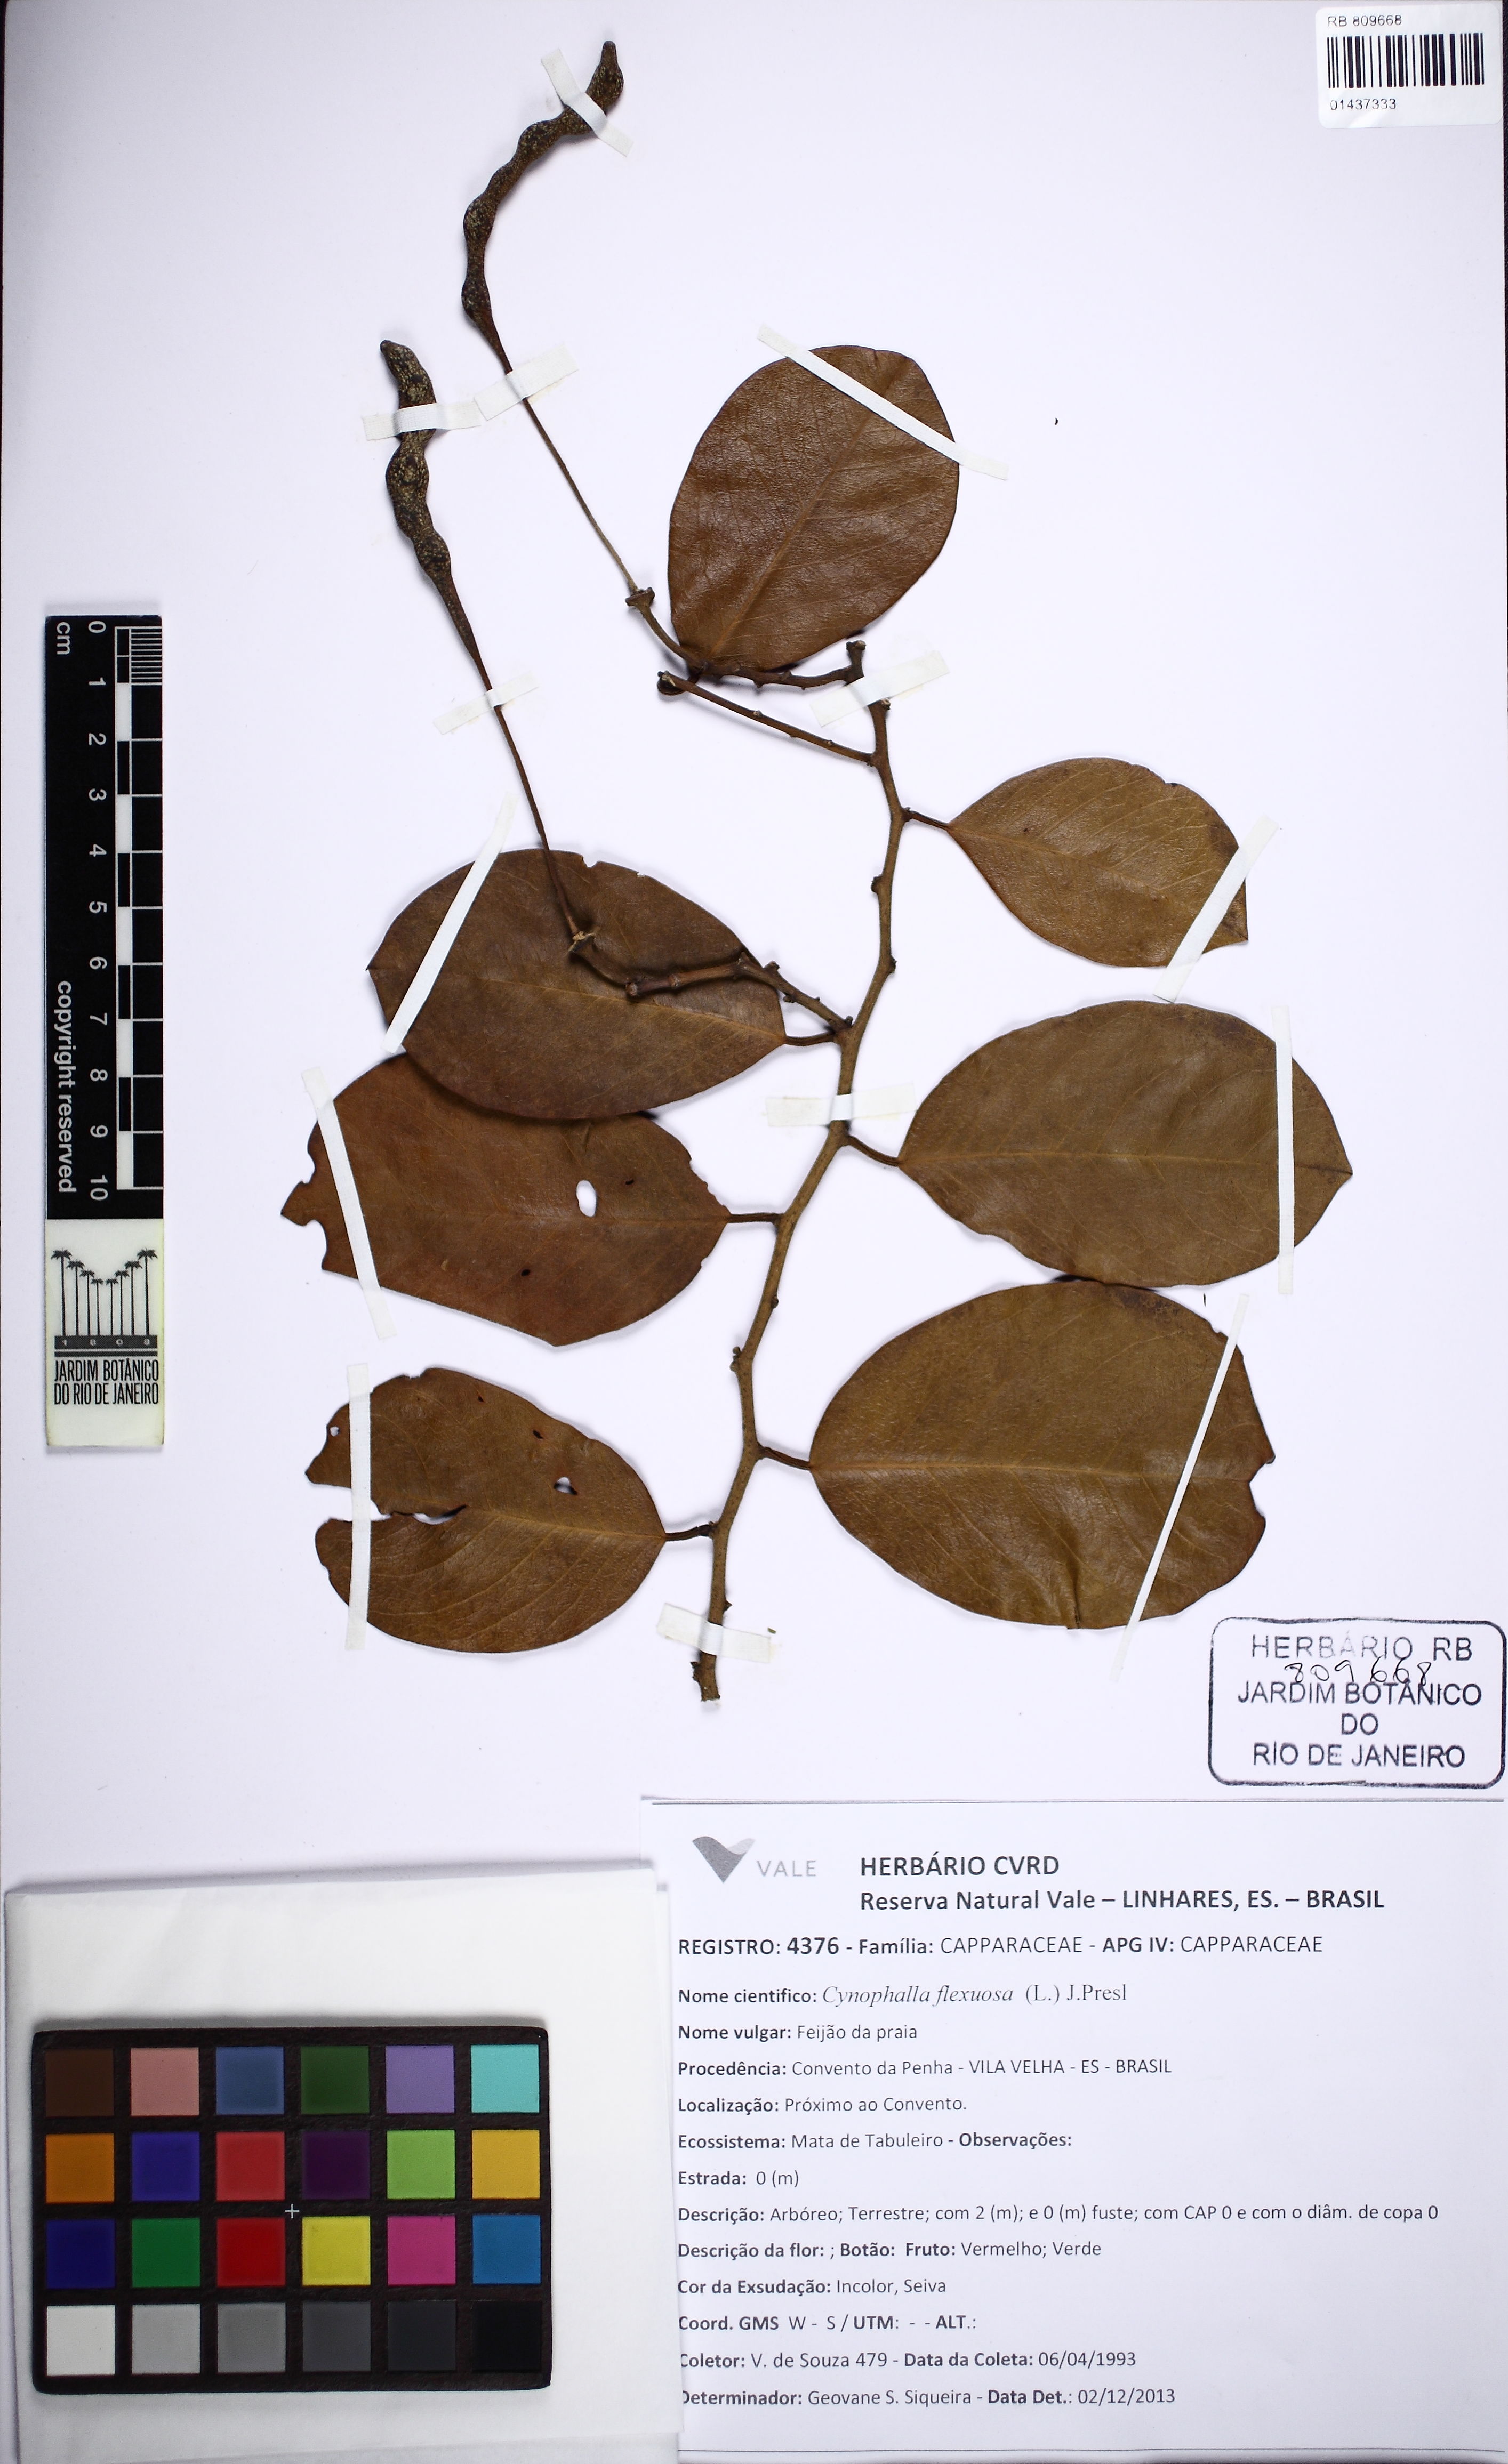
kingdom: Plantae
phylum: Tracheophyta
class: Magnoliopsida
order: Brassicales
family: Capparaceae
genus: Cynophalla
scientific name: Cynophalla flexuosa
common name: Capertree
